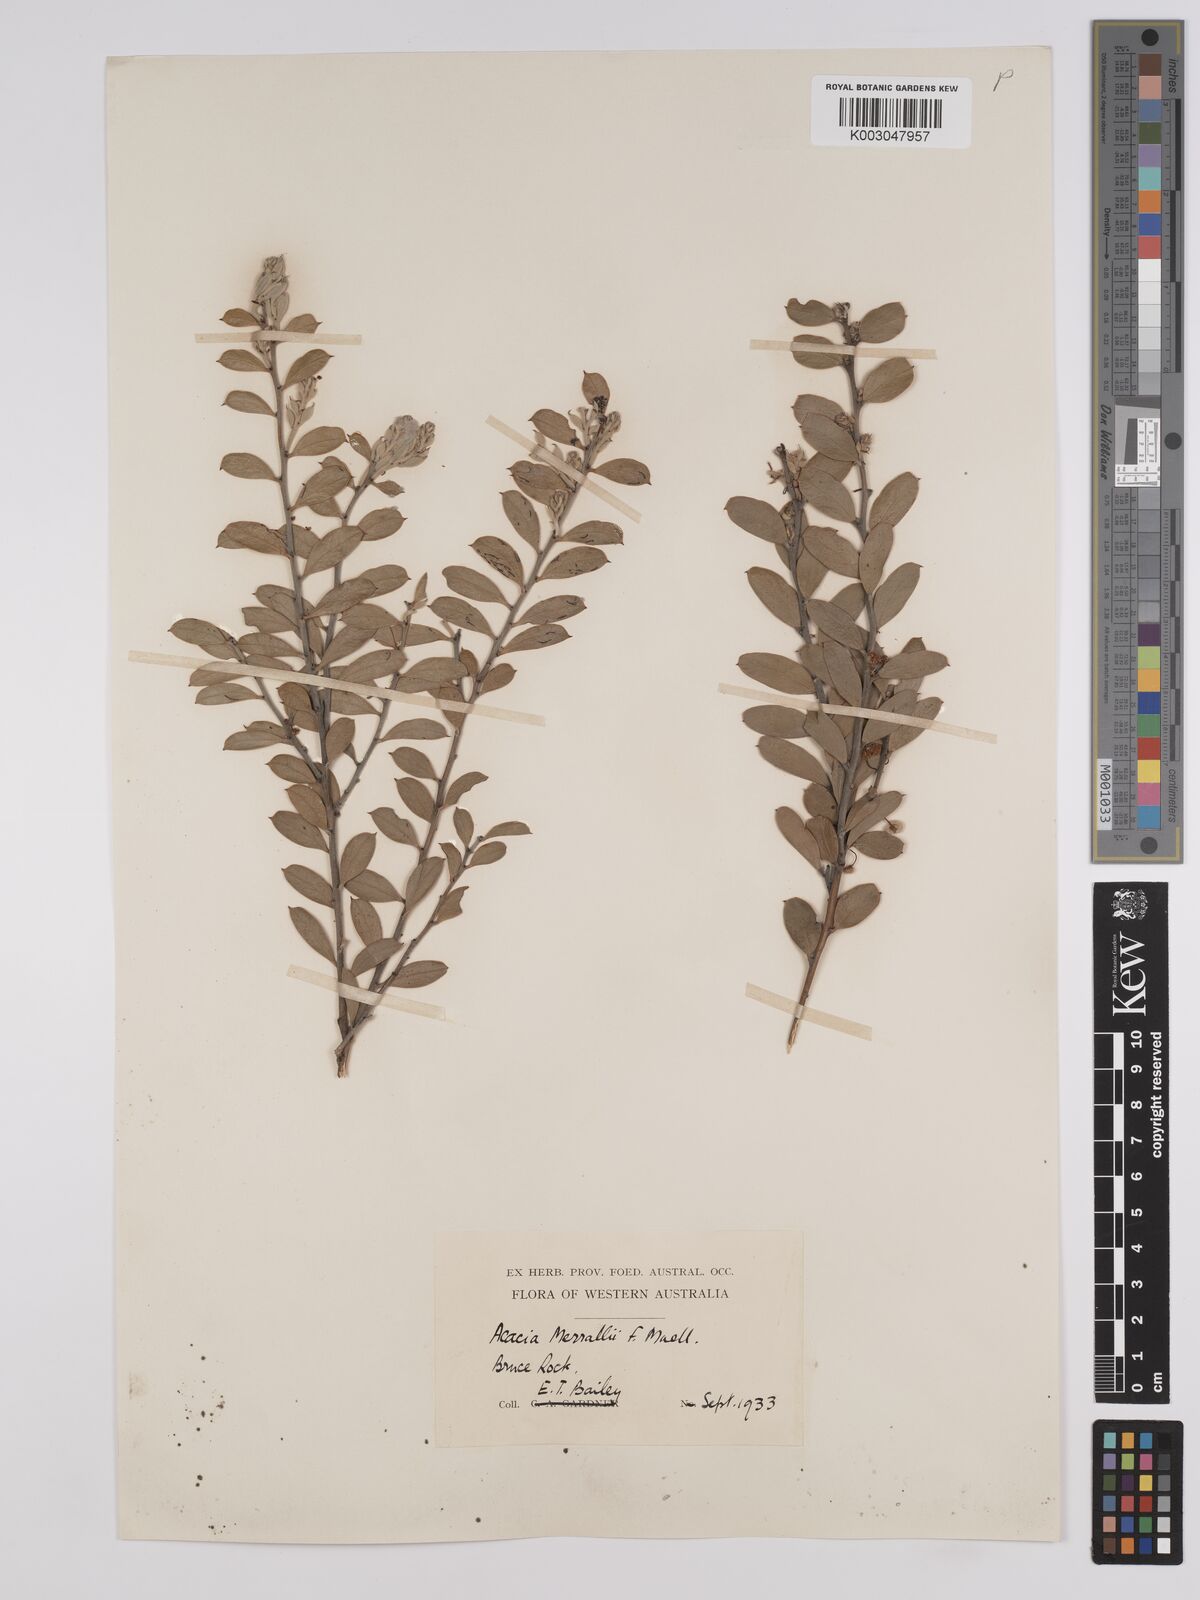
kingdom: Plantae
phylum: Tracheophyta
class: Magnoliopsida
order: Fabales
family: Fabaceae
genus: Acacia
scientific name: Acacia merrallii
